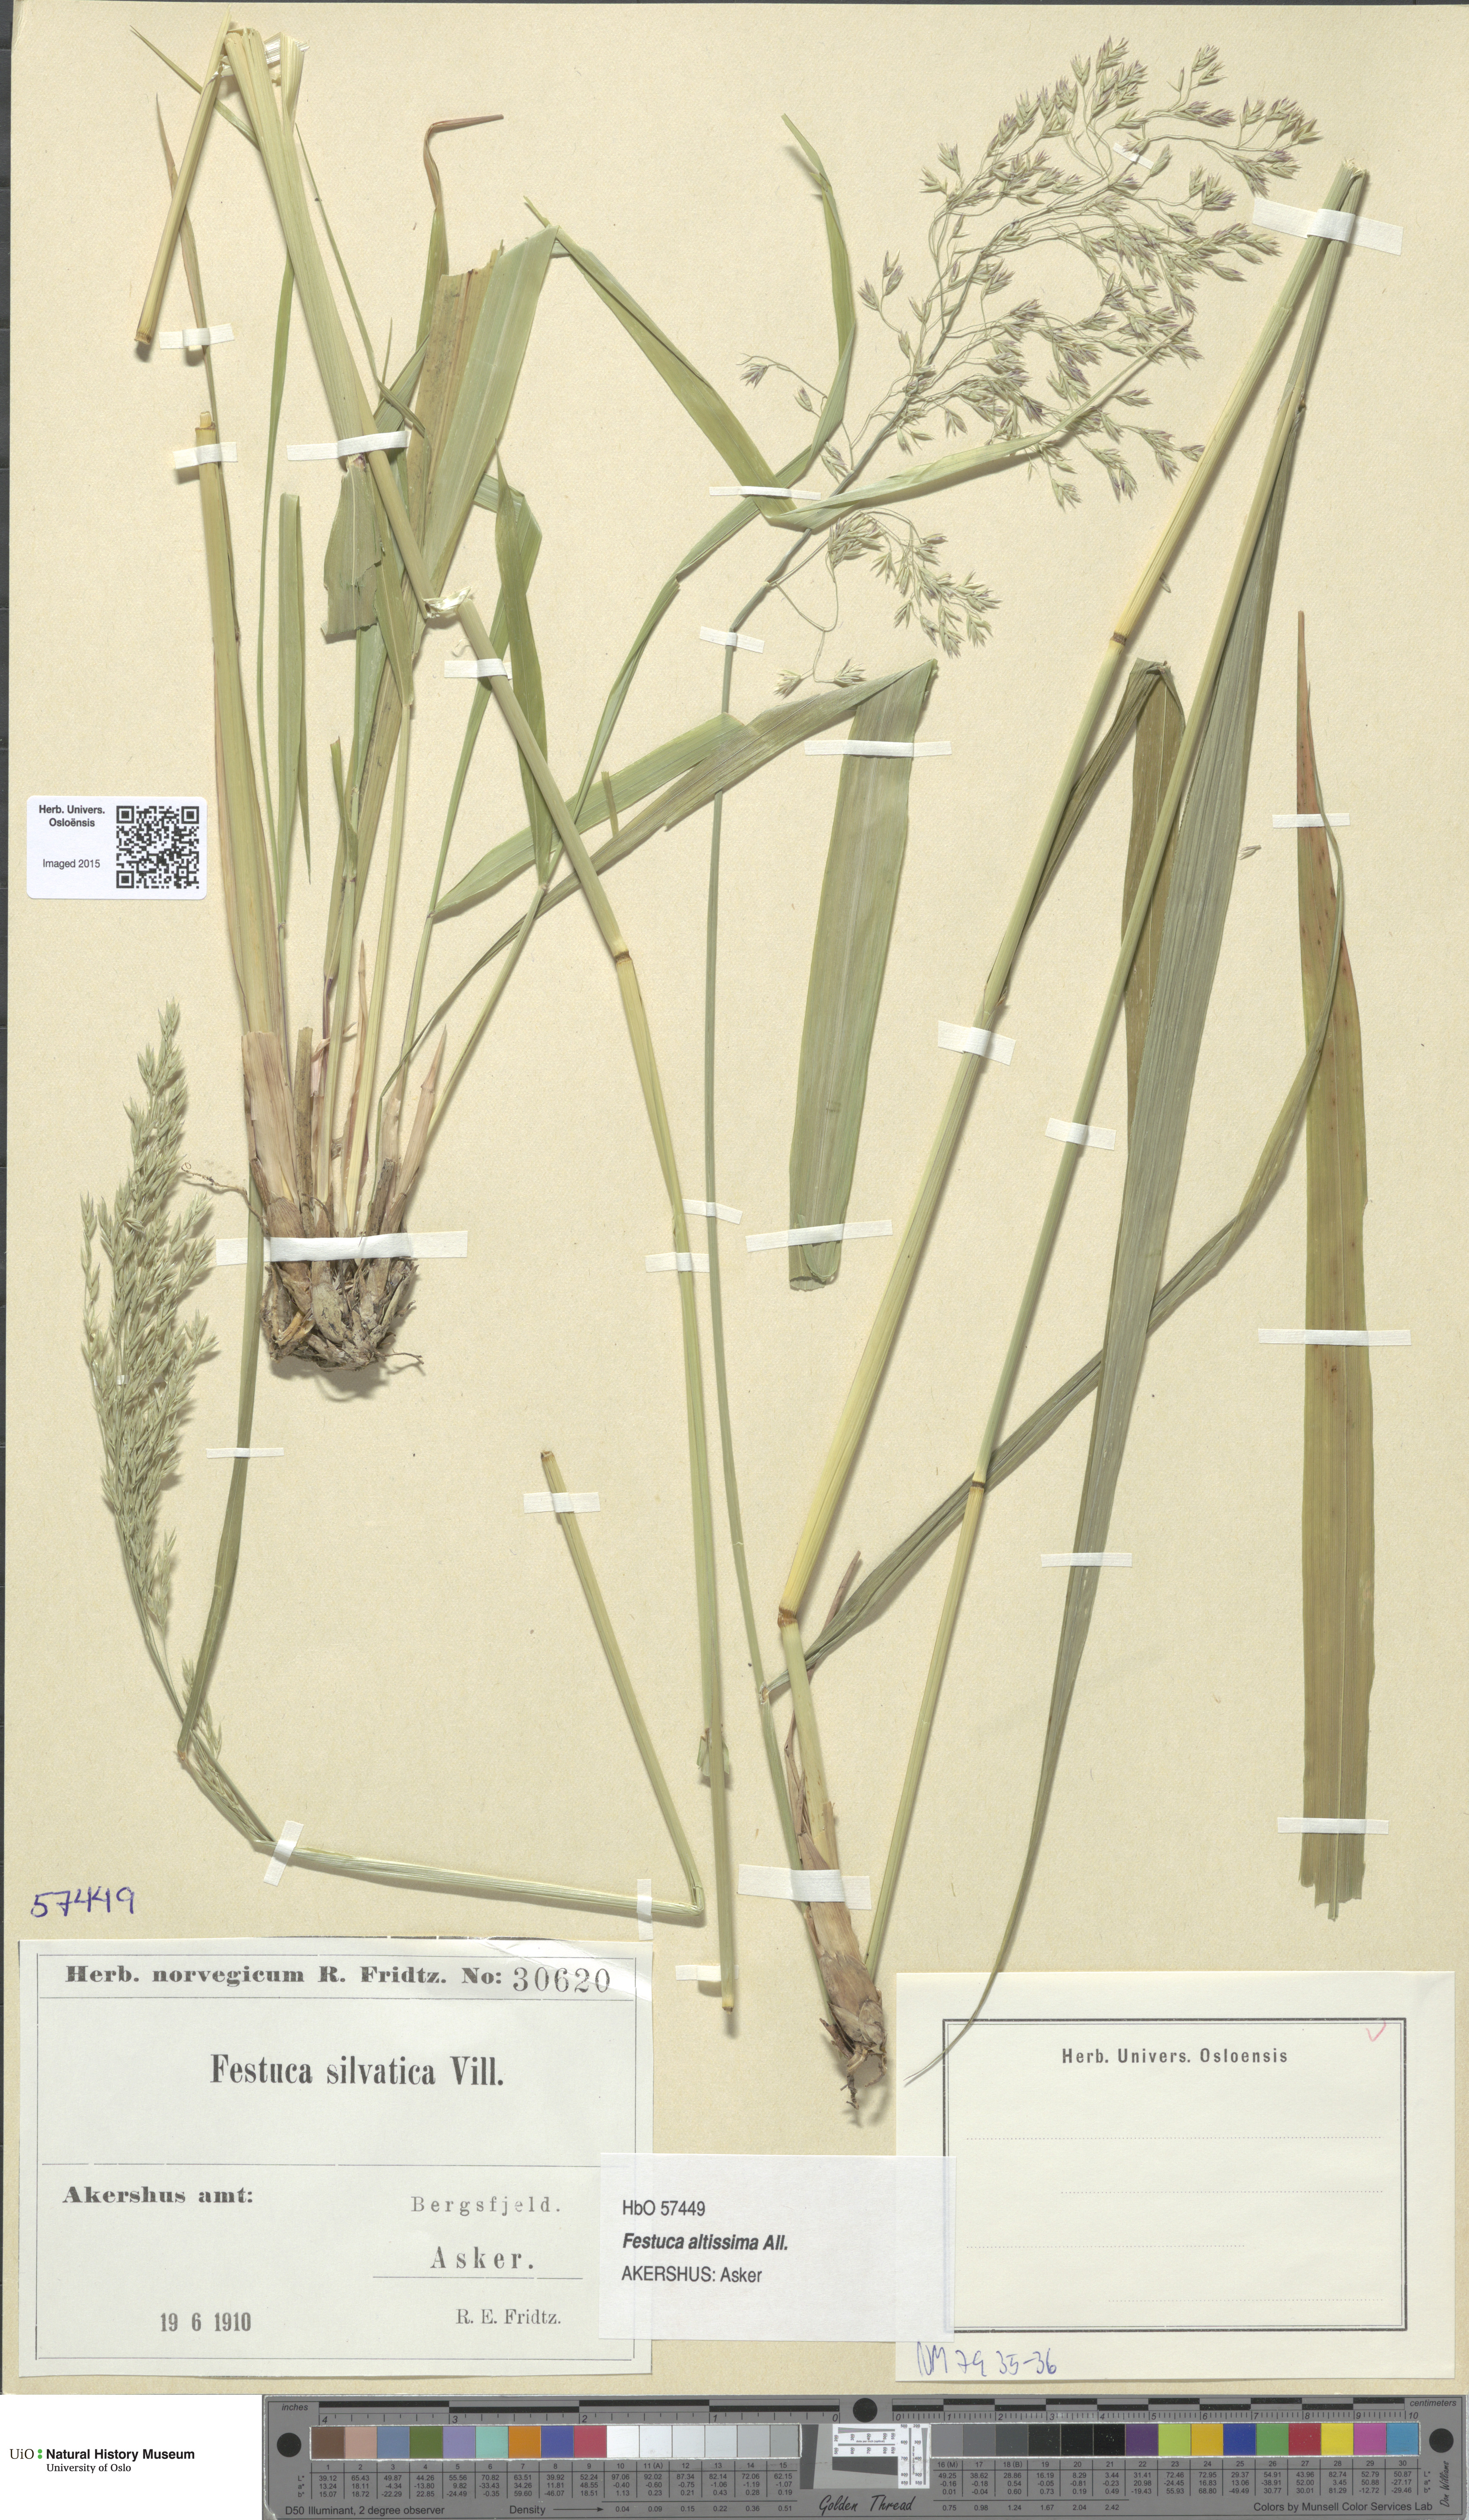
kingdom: Plantae
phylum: Tracheophyta
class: Liliopsida
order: Poales
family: Poaceae
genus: Festuca
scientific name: Festuca altissima
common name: Wood fescue
